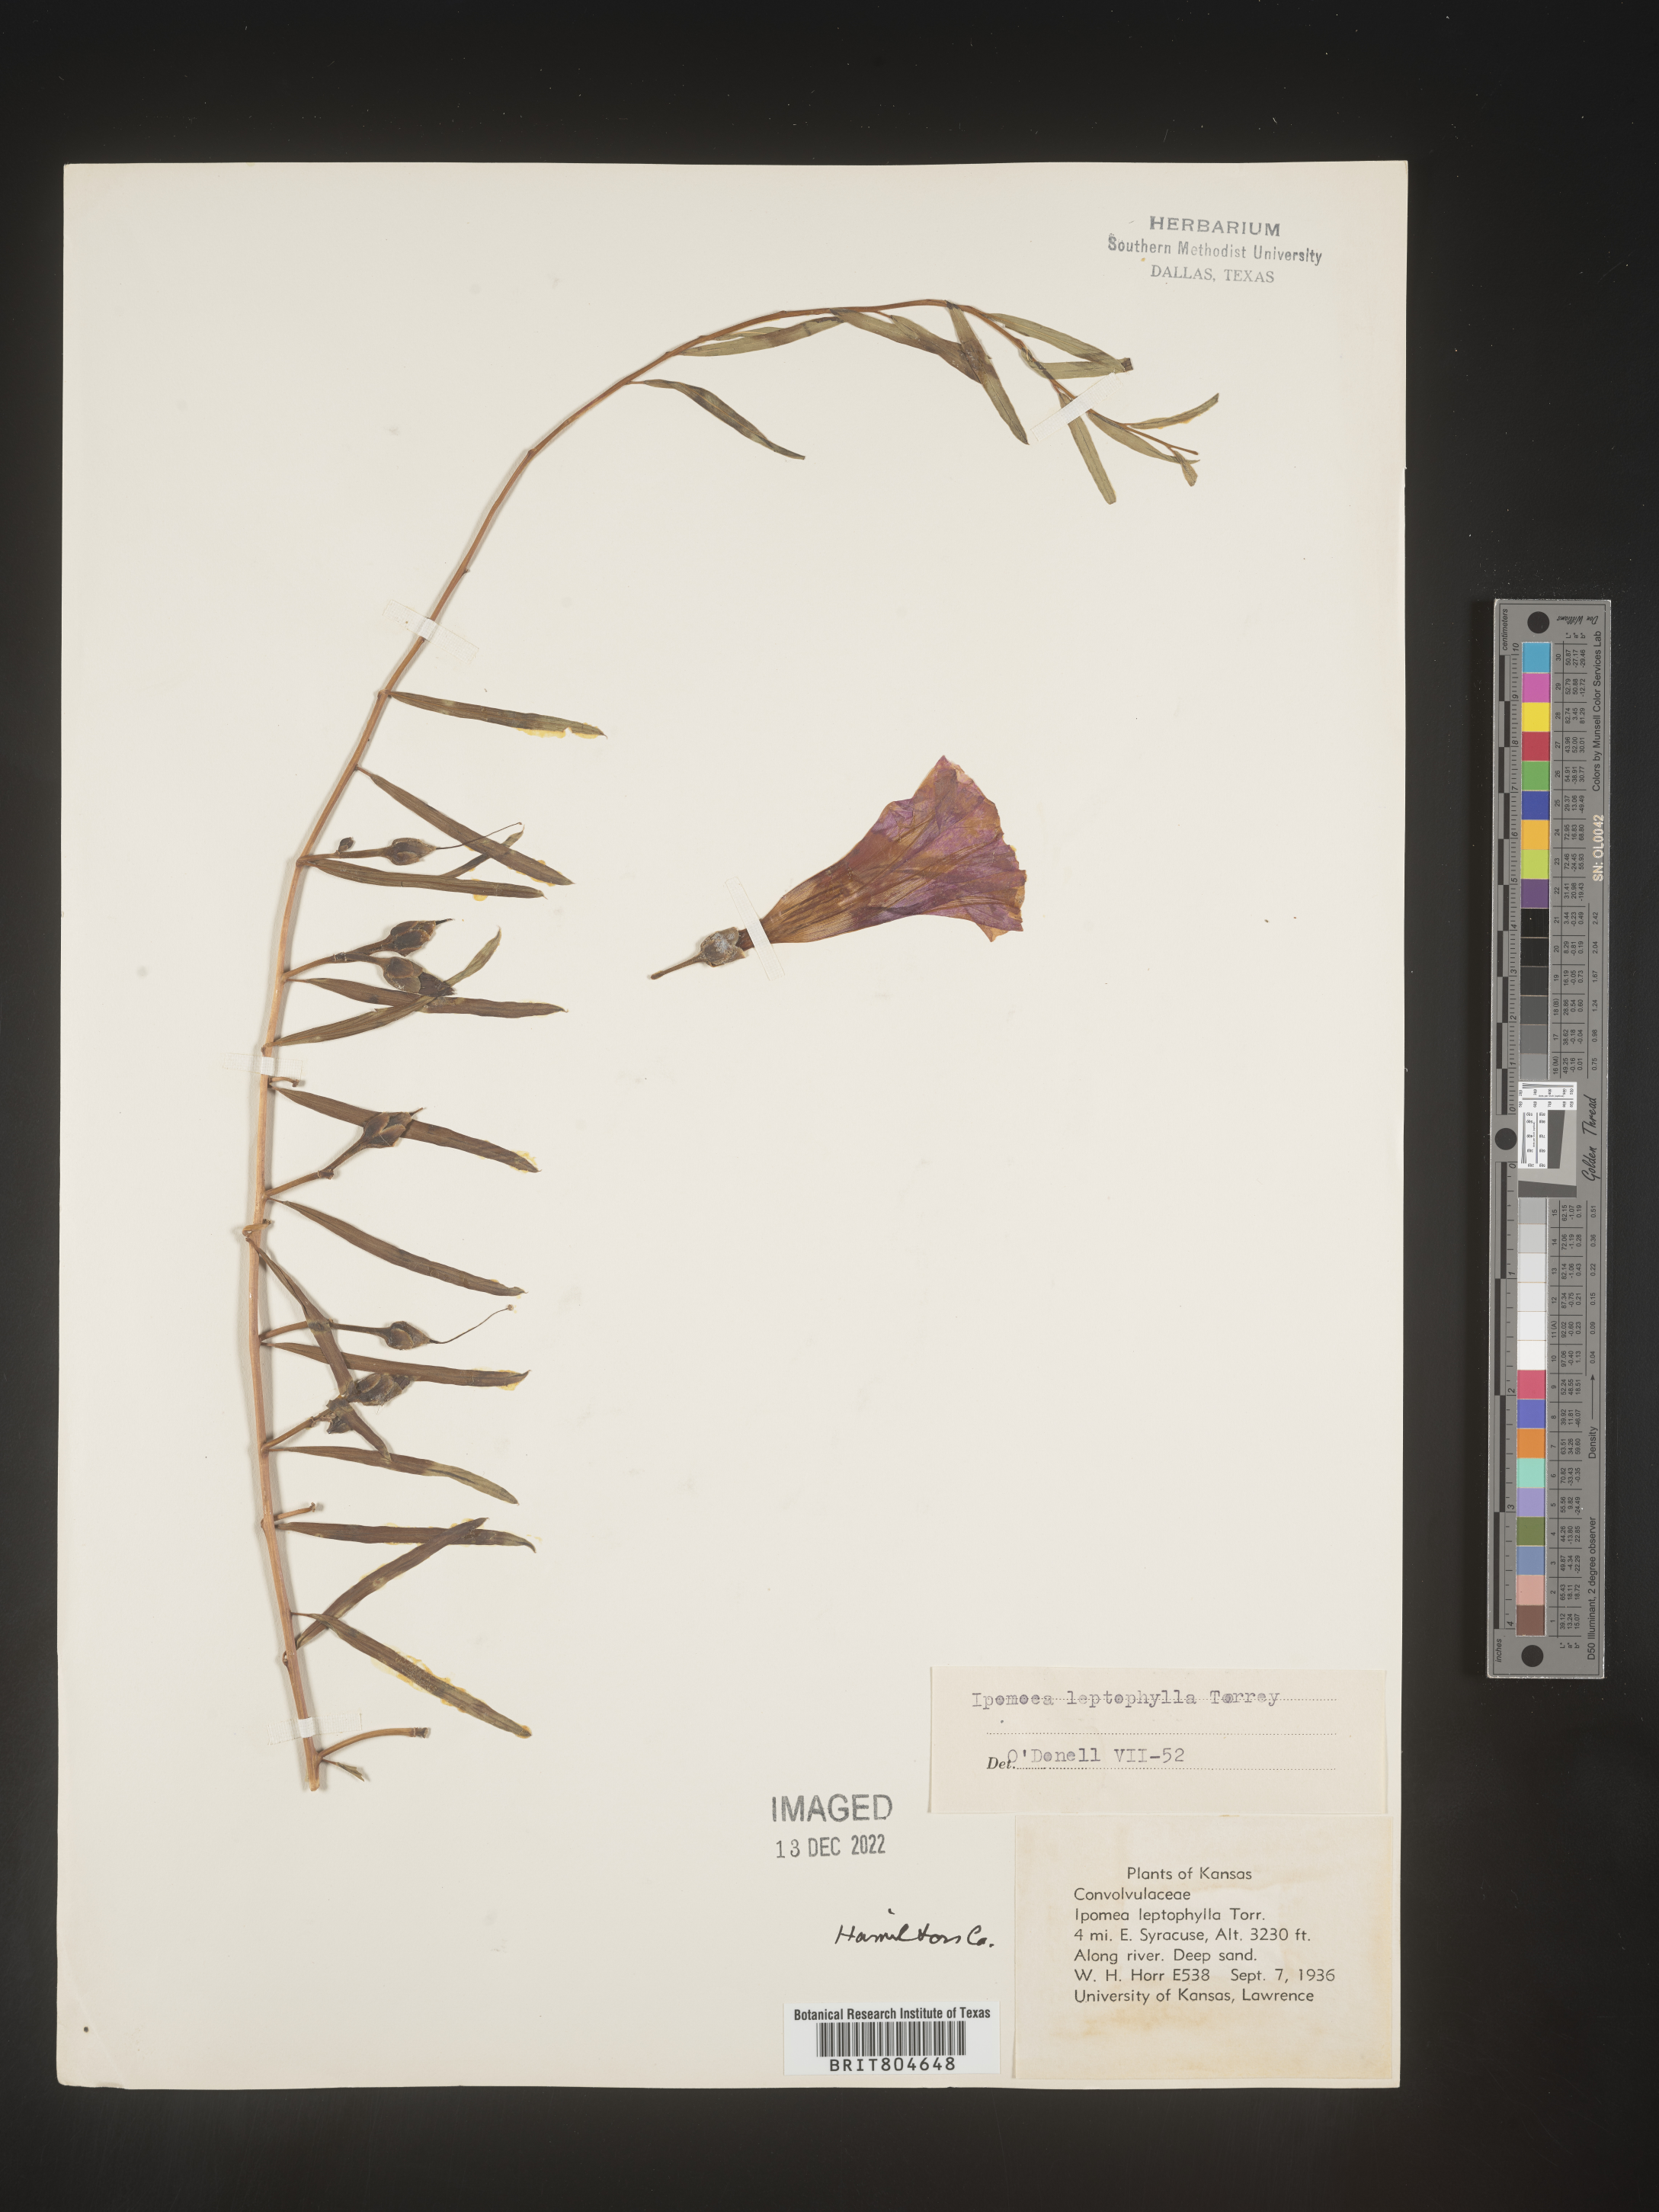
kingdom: Plantae
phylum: Tracheophyta
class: Magnoliopsida
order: Solanales
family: Convolvulaceae
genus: Ipomoea
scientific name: Ipomoea leptophylla
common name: Bush moonflower
